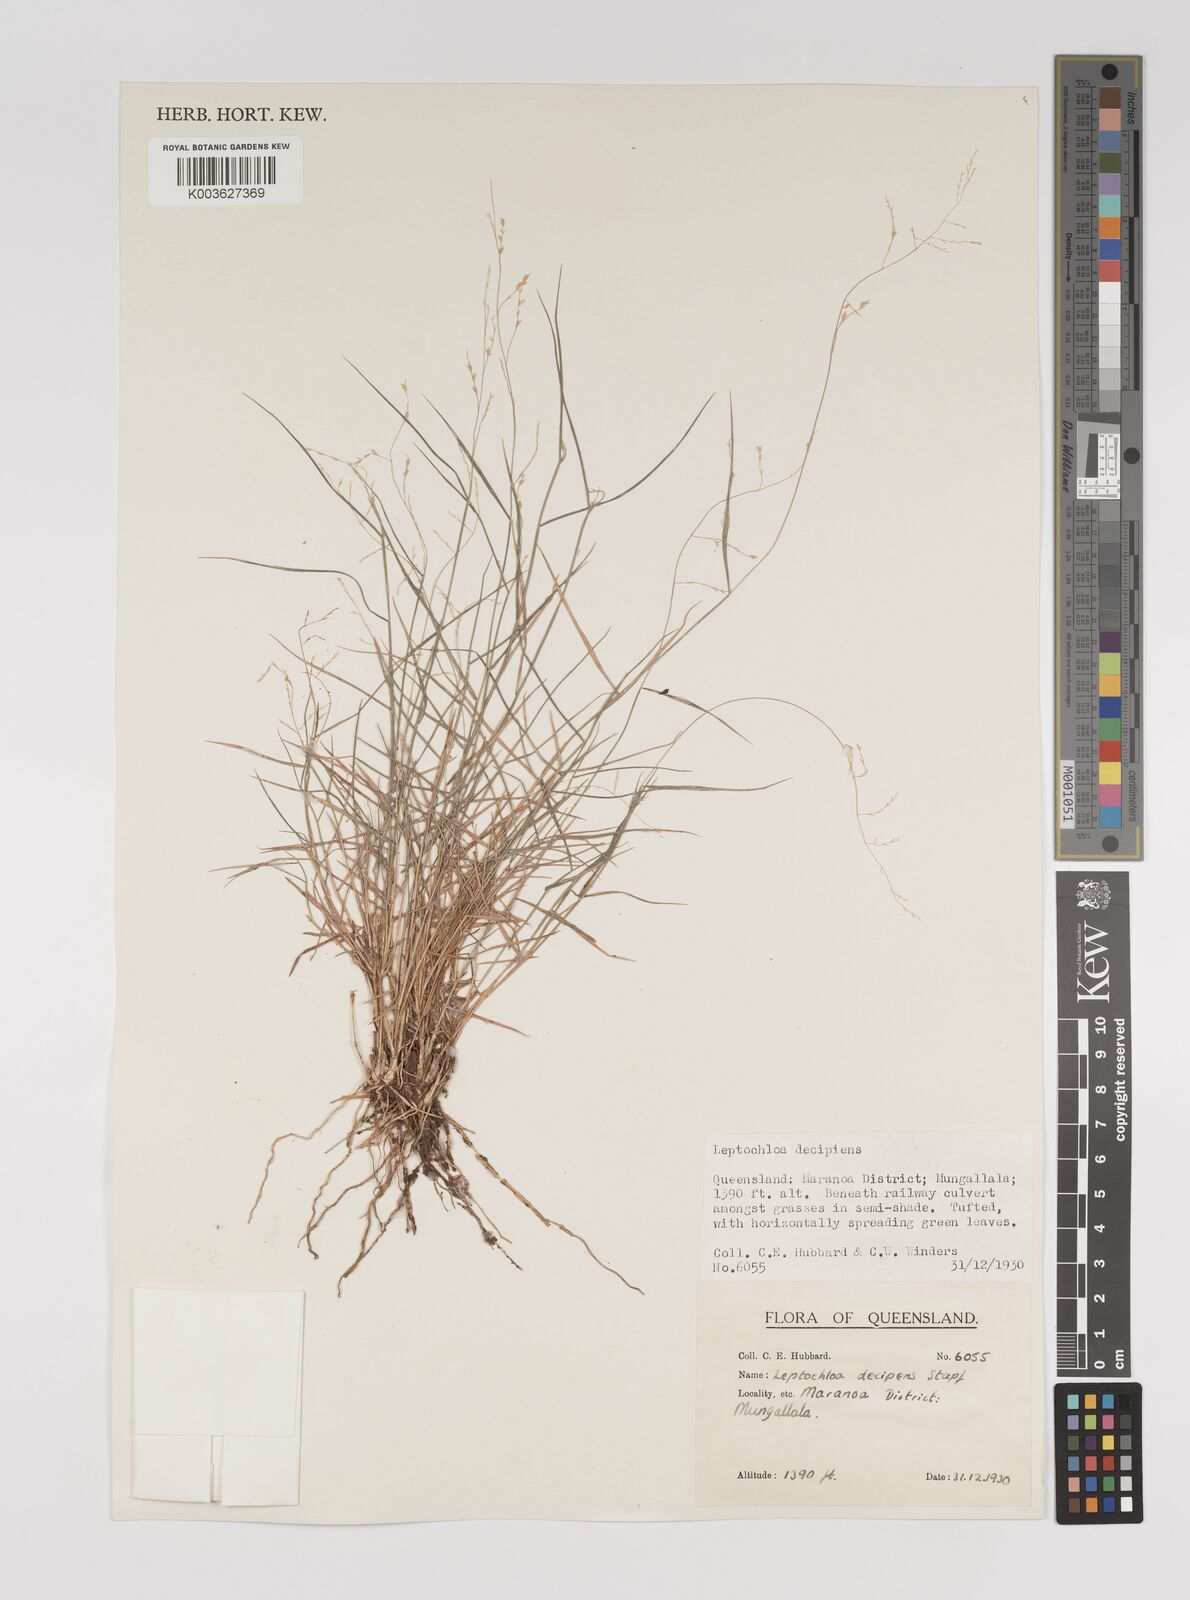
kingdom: Plantae
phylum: Tracheophyta
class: Liliopsida
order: Poales
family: Poaceae
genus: Leptochloa
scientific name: Leptochloa decipiens
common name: Australian sprangletop
